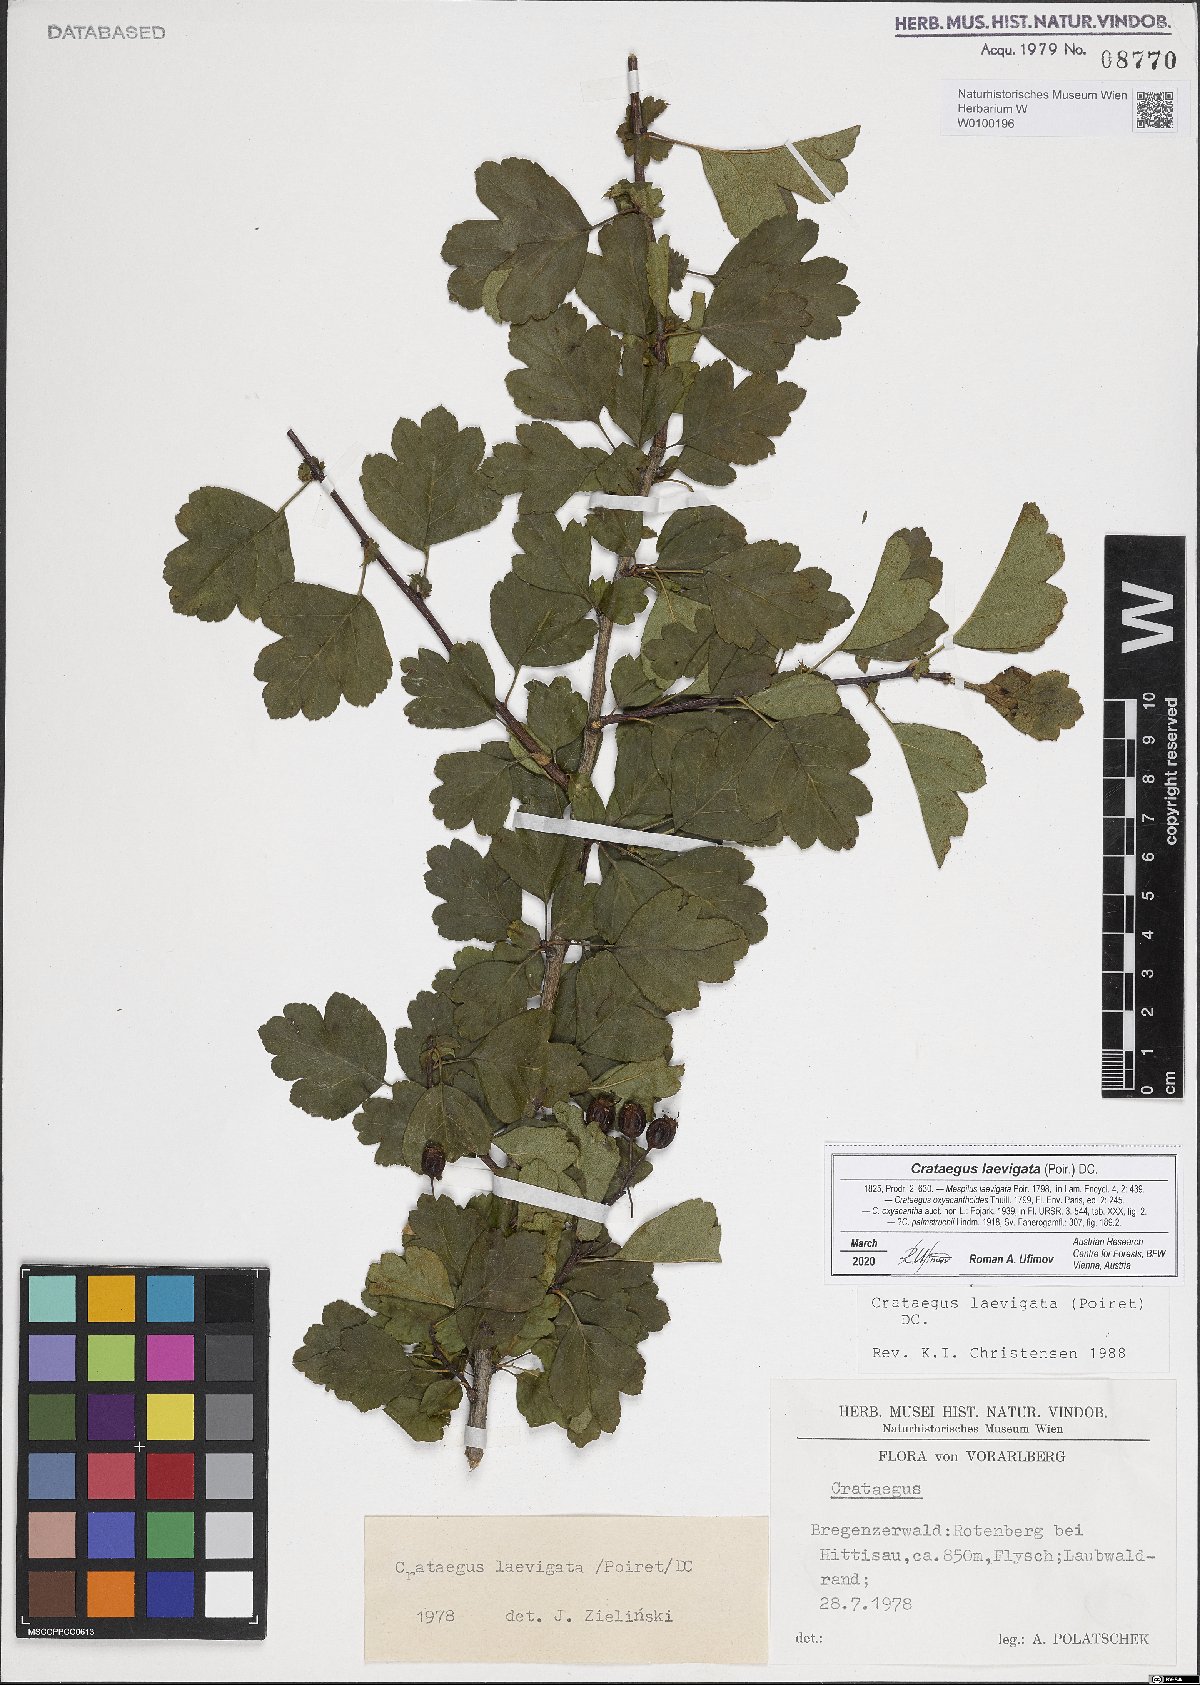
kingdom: Plantae
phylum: Tracheophyta
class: Magnoliopsida
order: Rosales
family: Rosaceae
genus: Crataegus
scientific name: Crataegus laevigata
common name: Midland hawthorn
